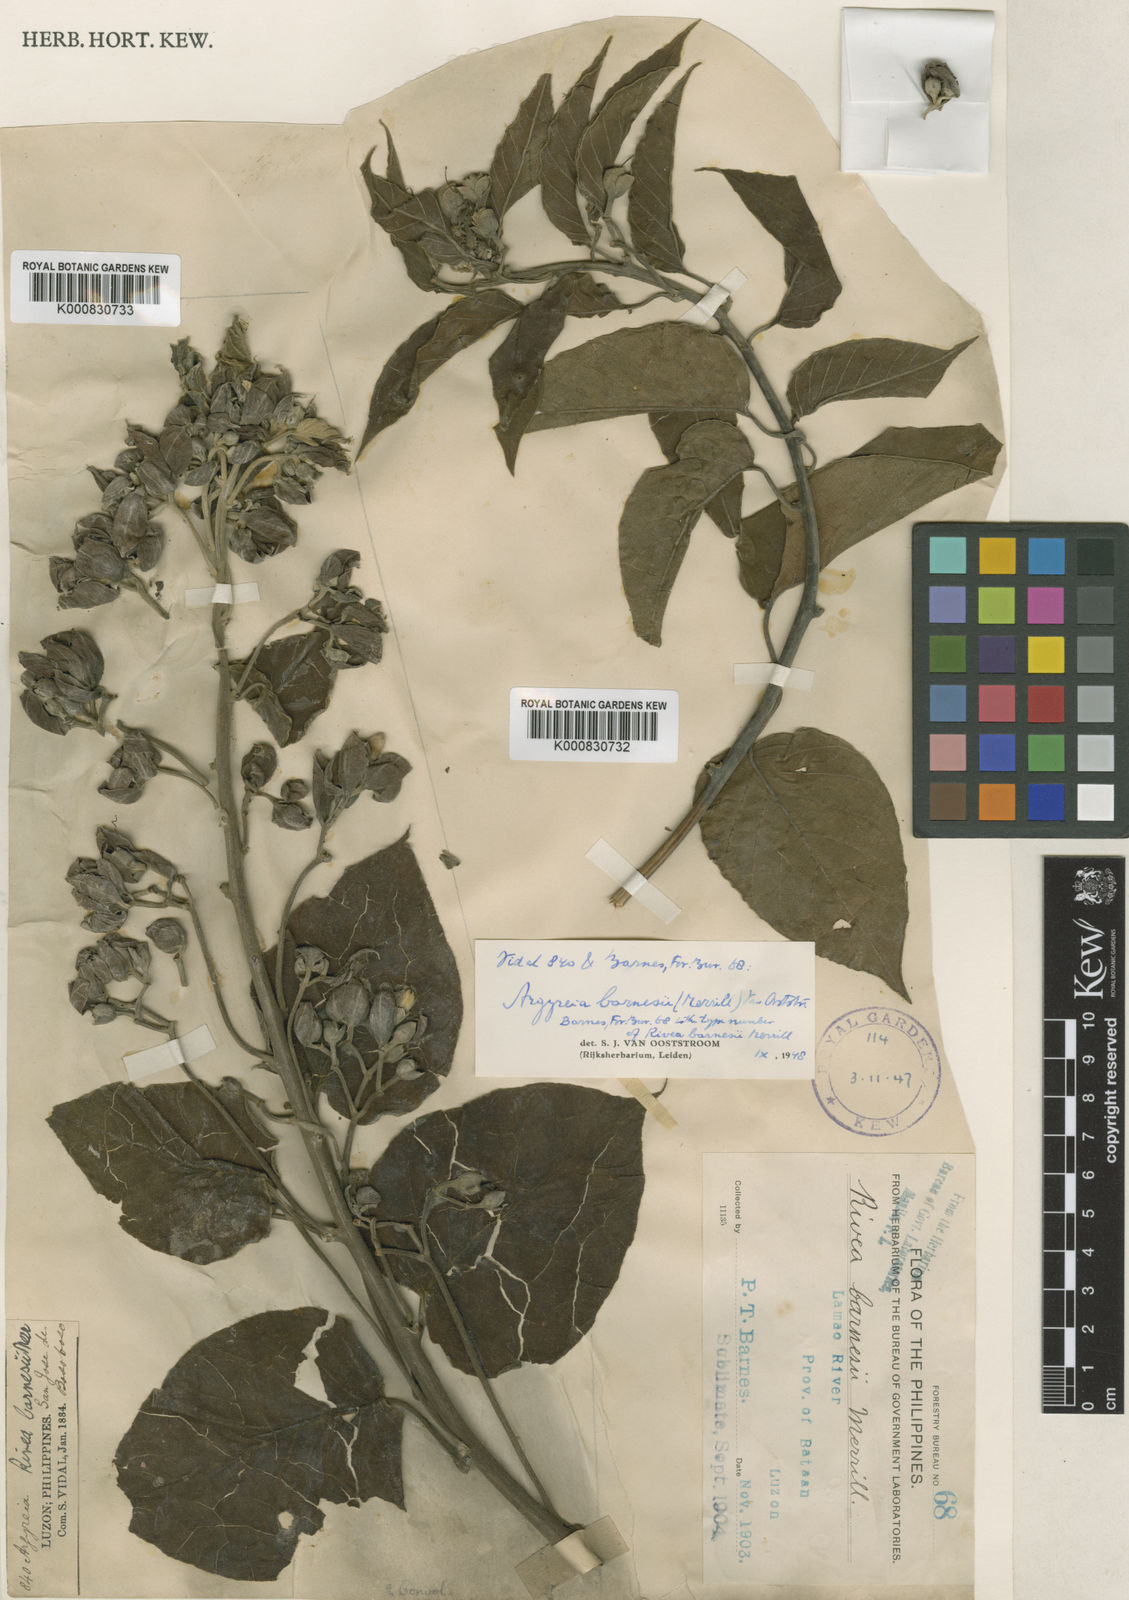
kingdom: Plantae
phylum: Tracheophyta
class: Magnoliopsida
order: Solanales
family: Convolvulaceae
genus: Argyreia
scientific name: Argyreia barnesii
